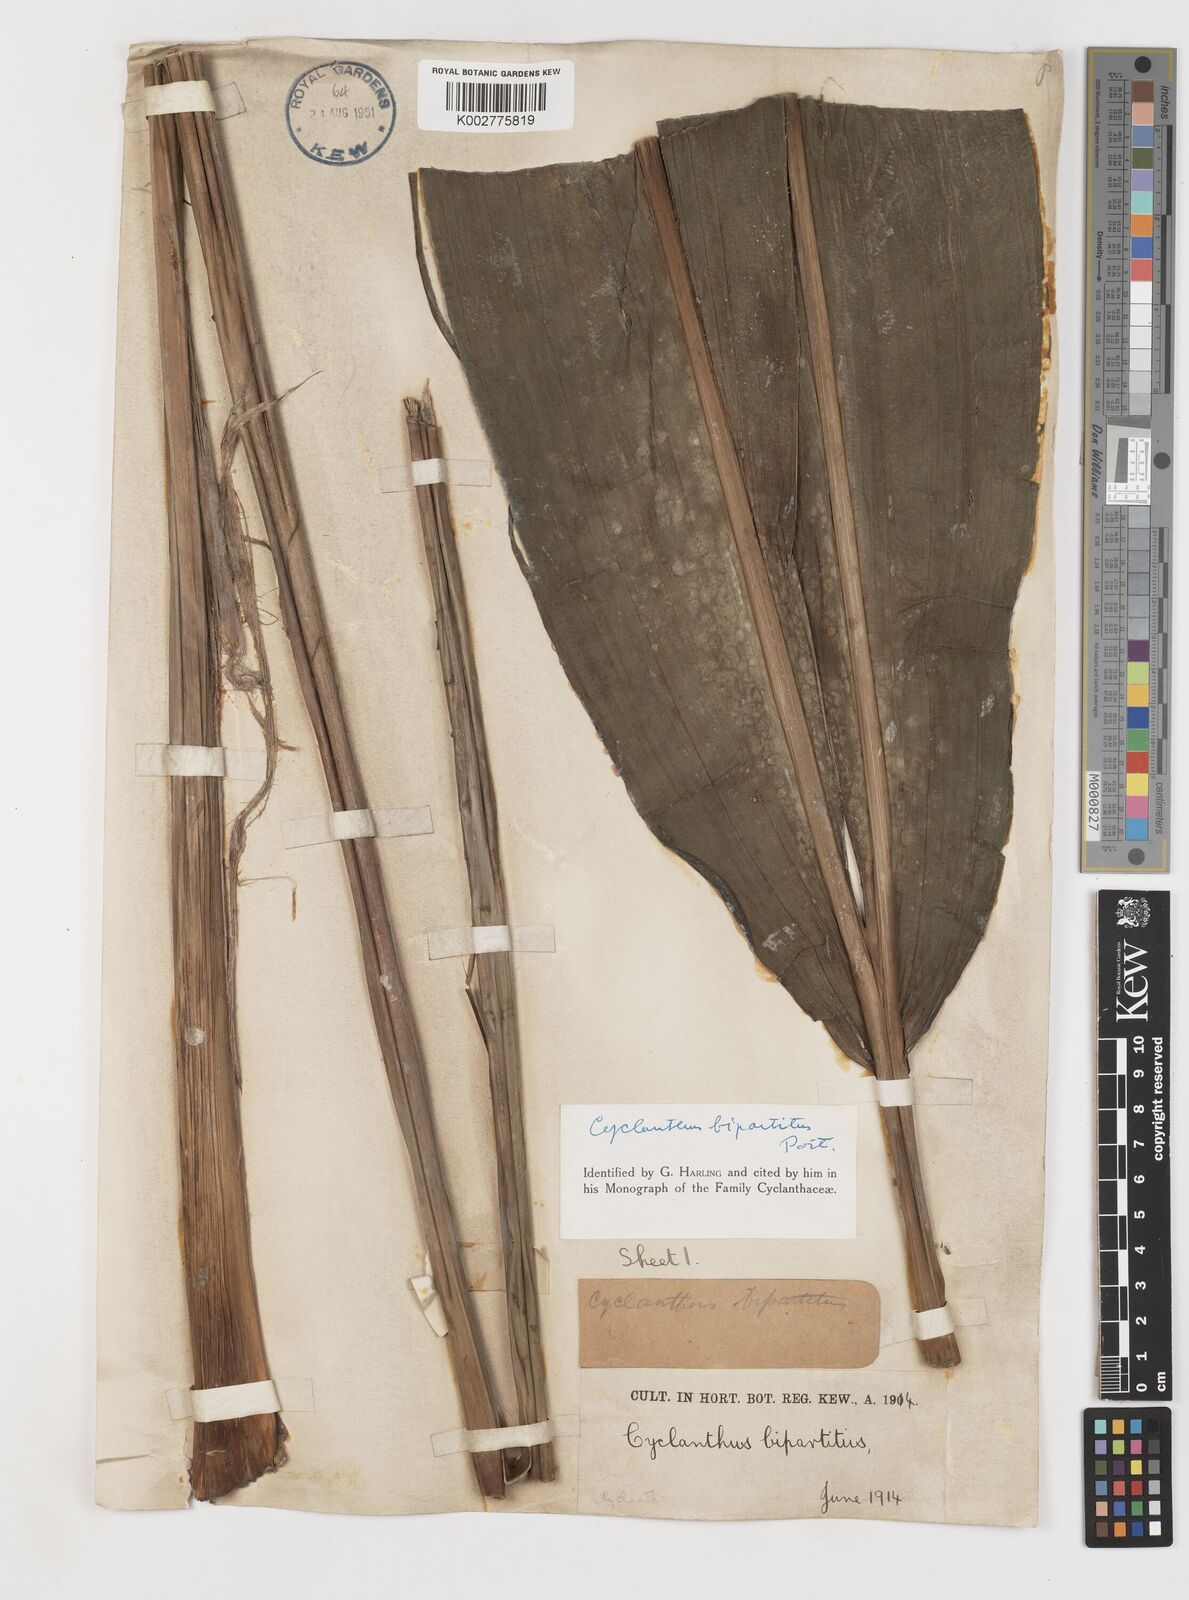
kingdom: Plantae
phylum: Tracheophyta
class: Liliopsida
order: Pandanales
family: Cyclanthaceae
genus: Cyclanthus
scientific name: Cyclanthus bipartitus
